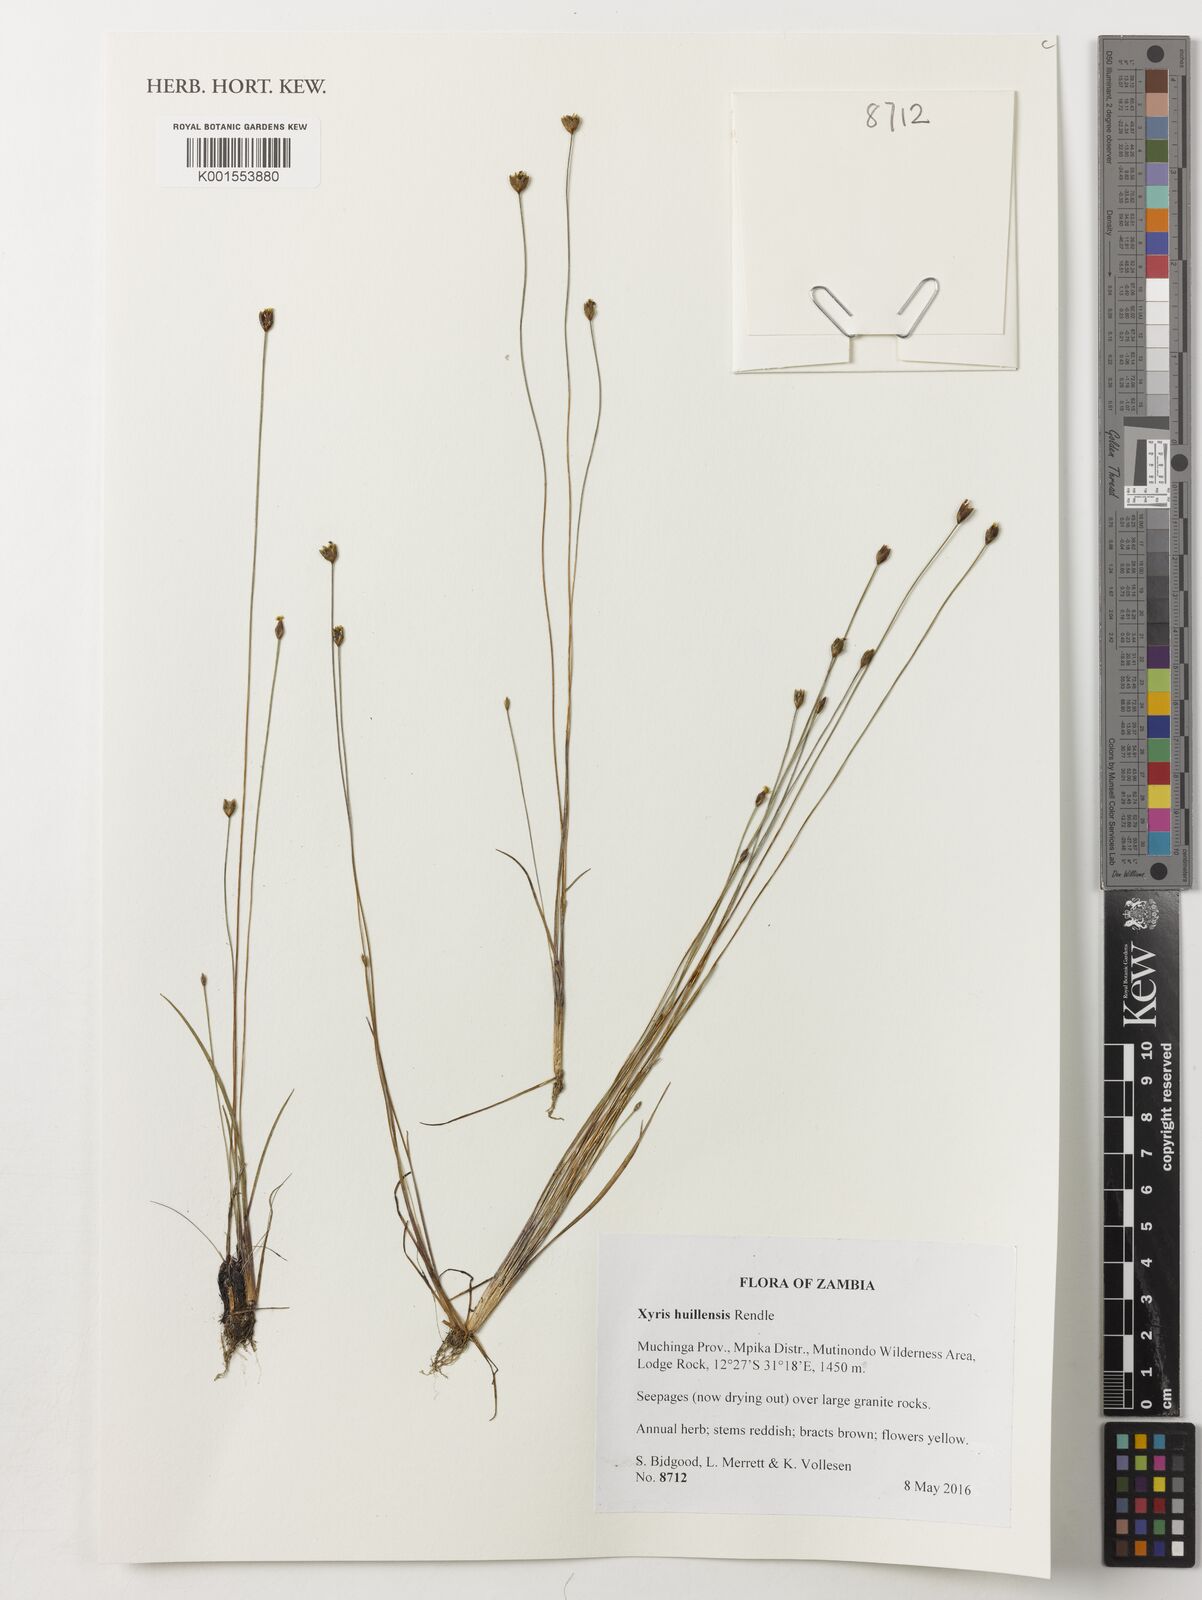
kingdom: Plantae
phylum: Tracheophyta
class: Liliopsida
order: Poales
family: Xyridaceae
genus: Xyris
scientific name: Xyris huillensis
